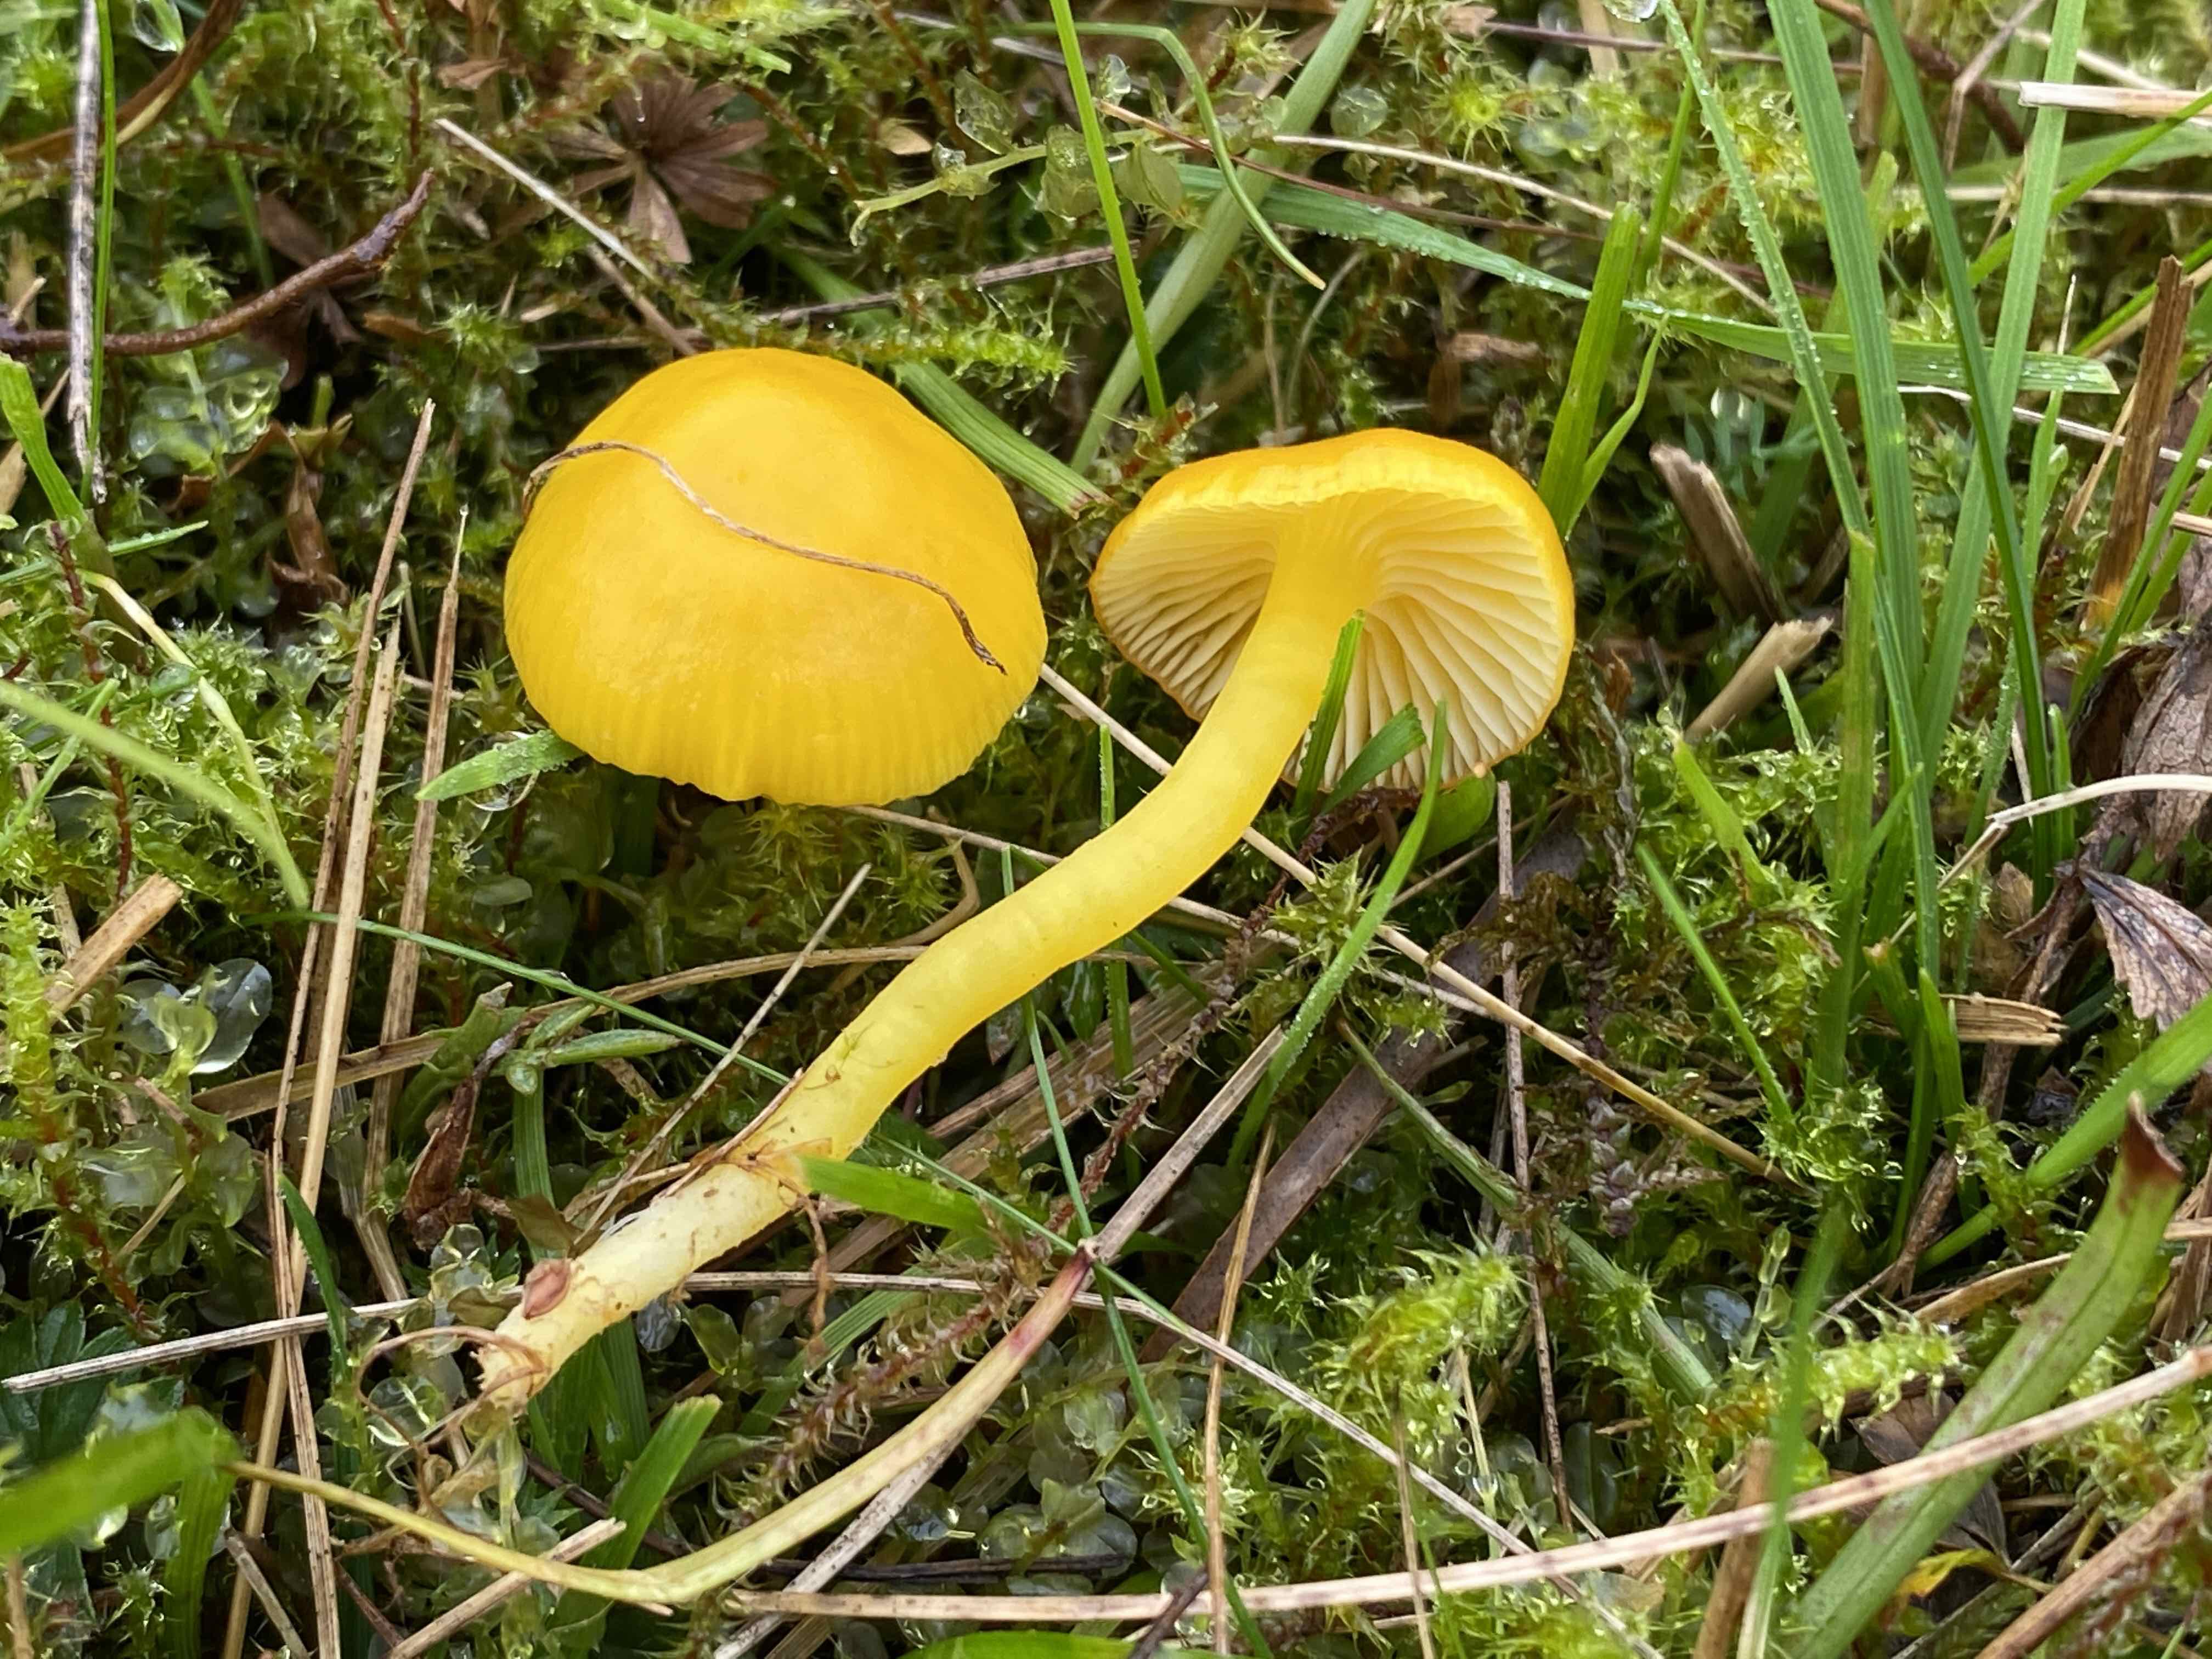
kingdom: Fungi
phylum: Basidiomycota
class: Agaricomycetes
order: Agaricales
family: Hygrophoraceae
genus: Hygrocybe
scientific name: Hygrocybe ceracea
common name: voksgul vokshat
